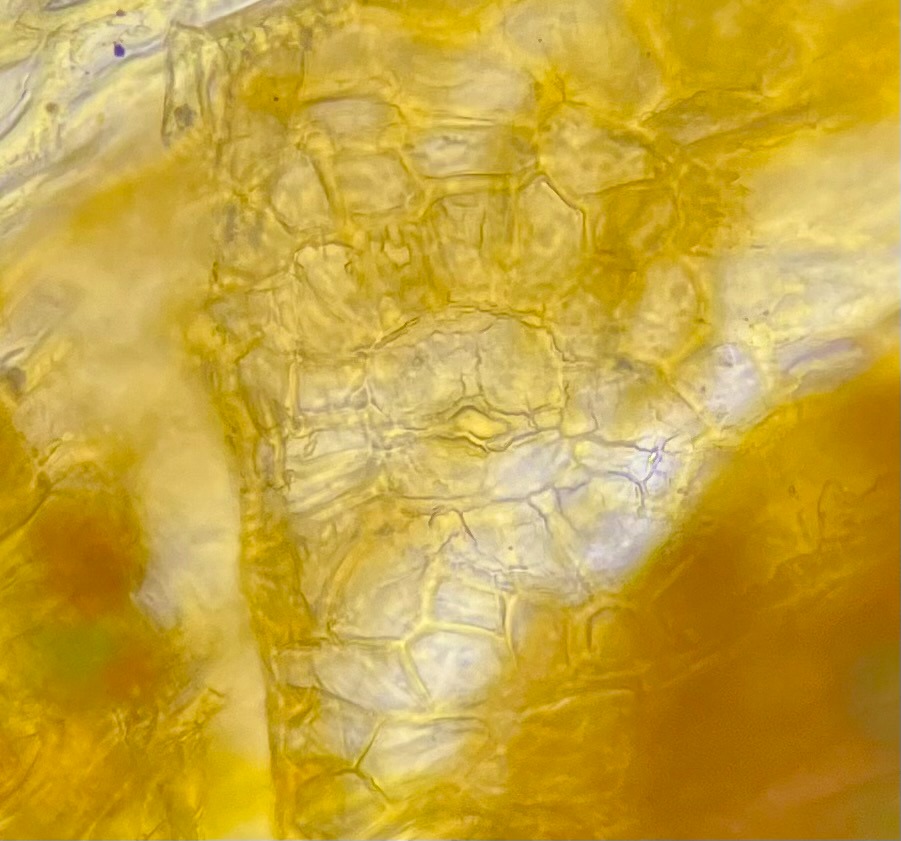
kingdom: Plantae
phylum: Bryophyta
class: Bryopsida
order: Orthotrichales
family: Orthotrichaceae
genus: Lewinskya
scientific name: Lewinskya striata
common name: Glatkapslet furehætte
